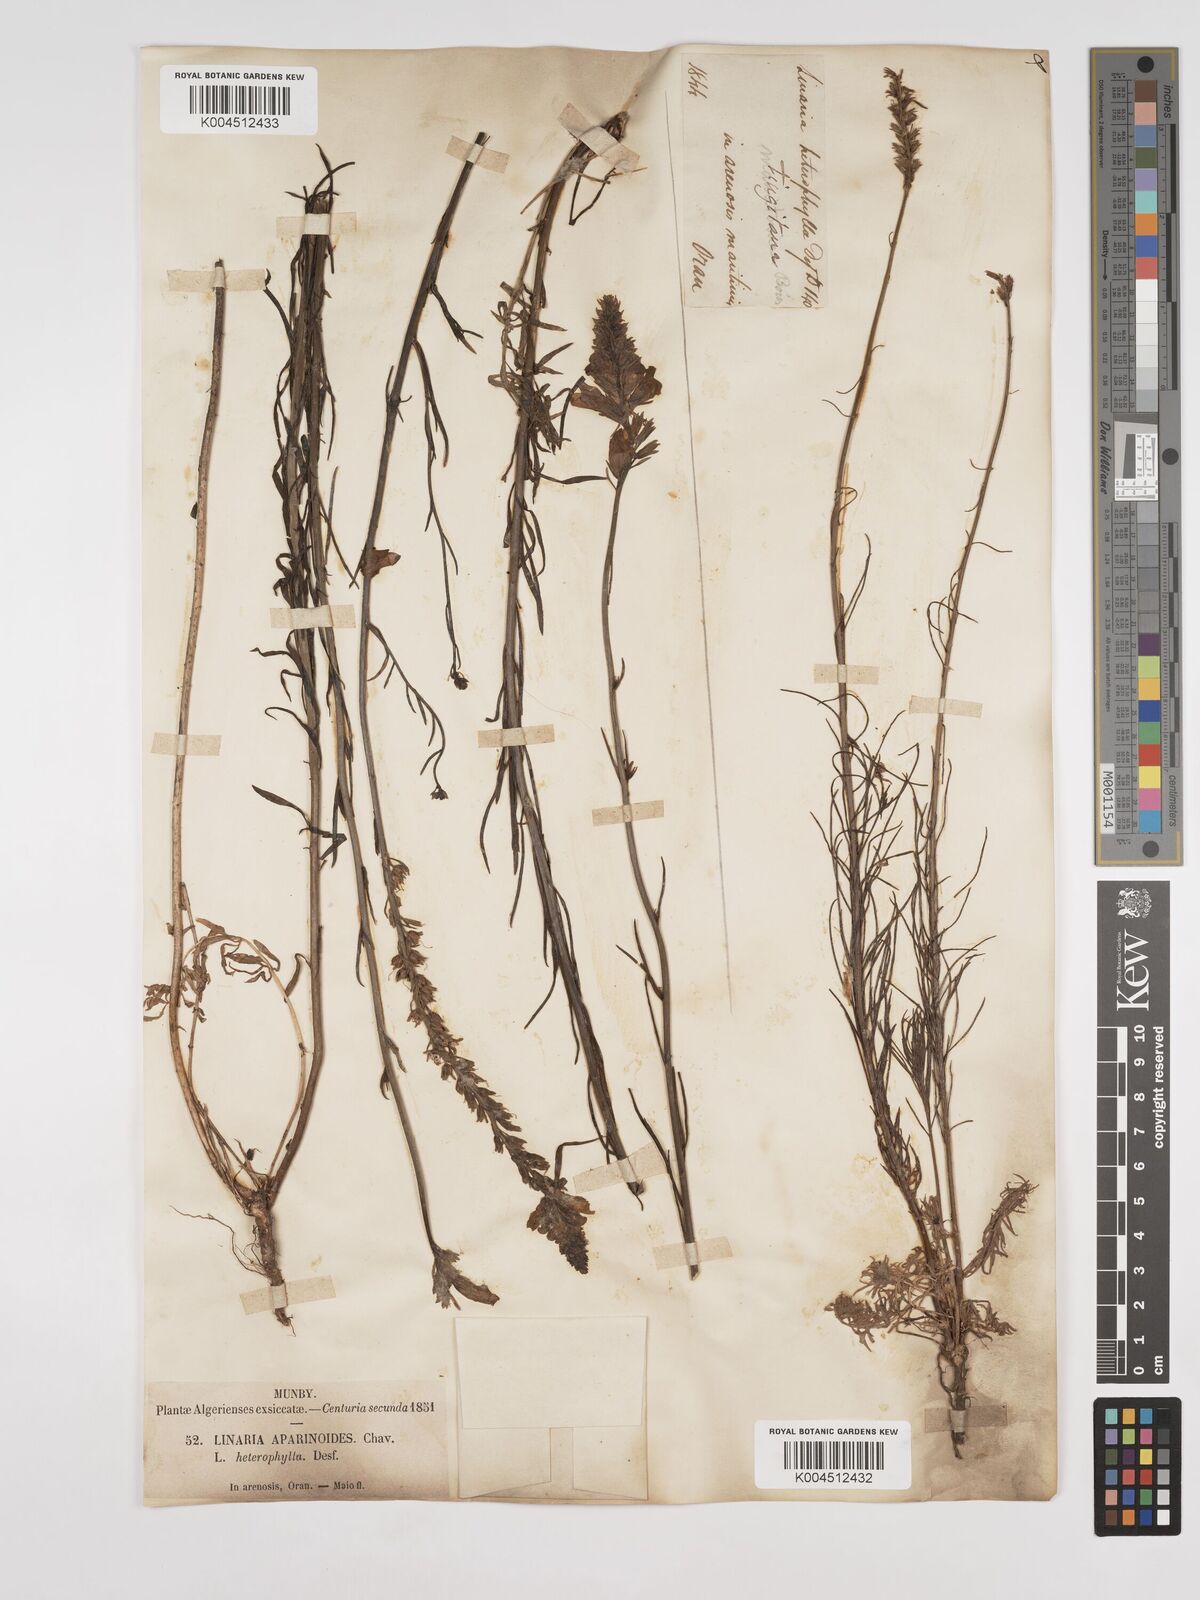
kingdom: Plantae
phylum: Tracheophyta
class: Magnoliopsida
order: Lamiales
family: Plantaginaceae
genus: Linaria
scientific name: Linaria multicaulis
